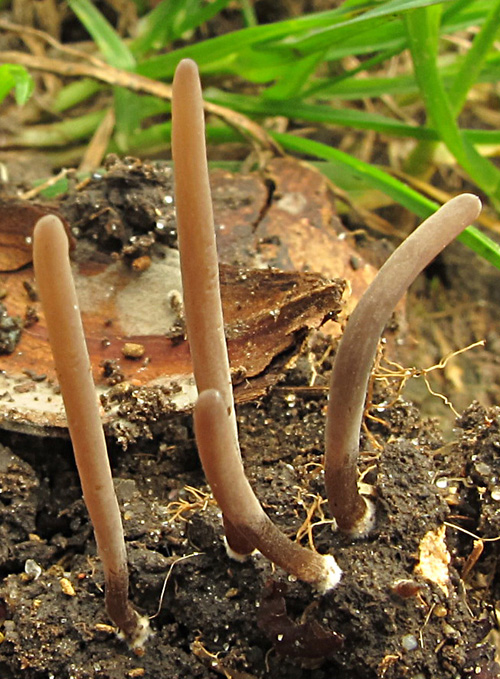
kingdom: Fungi
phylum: Basidiomycota
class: Agaricomycetes
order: Agaricales
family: Clavariaceae
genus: Ramariopsis
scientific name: Ramariopsis asperulospora
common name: sort køllesvamp
